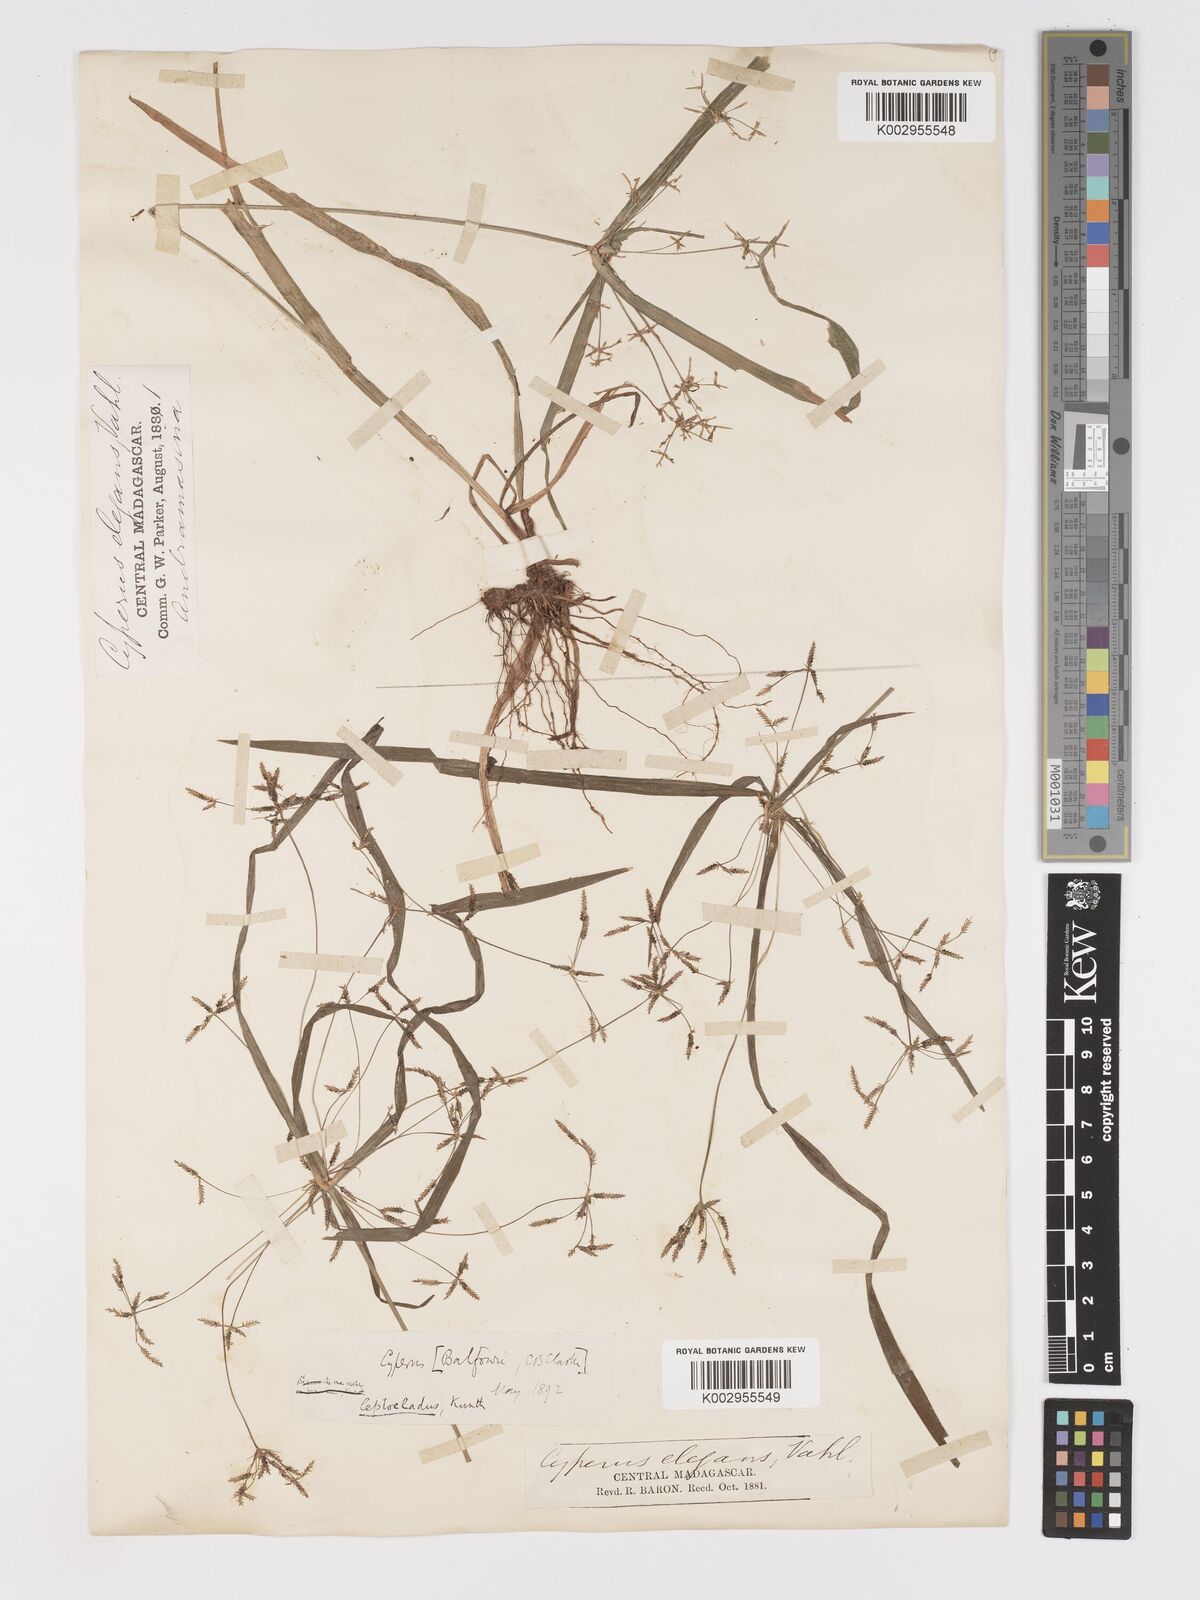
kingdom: Plantae
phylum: Tracheophyta
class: Liliopsida
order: Poales
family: Cyperaceae
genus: Cyperus
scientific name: Cyperus longifolius
